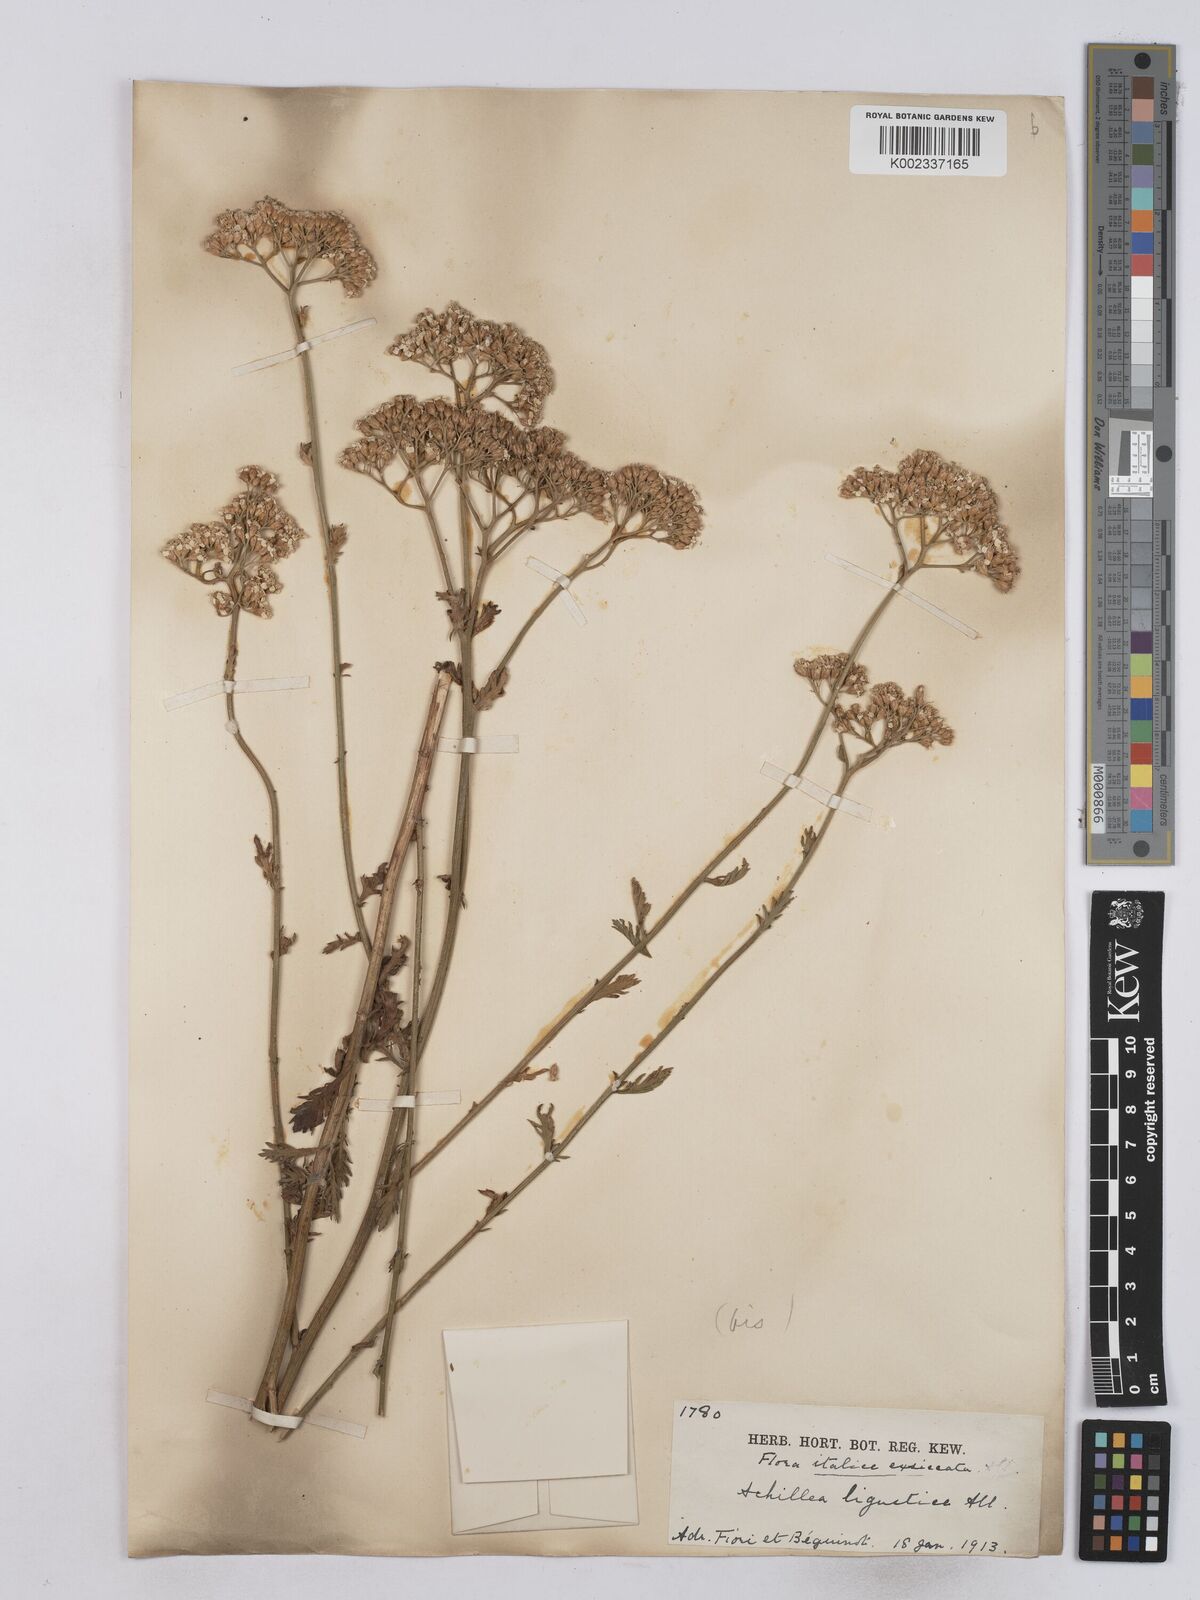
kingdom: Plantae
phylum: Tracheophyta
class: Magnoliopsida
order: Asterales
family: Asteraceae
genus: Achillea
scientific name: Achillea ligustica
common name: Southern yarrow
